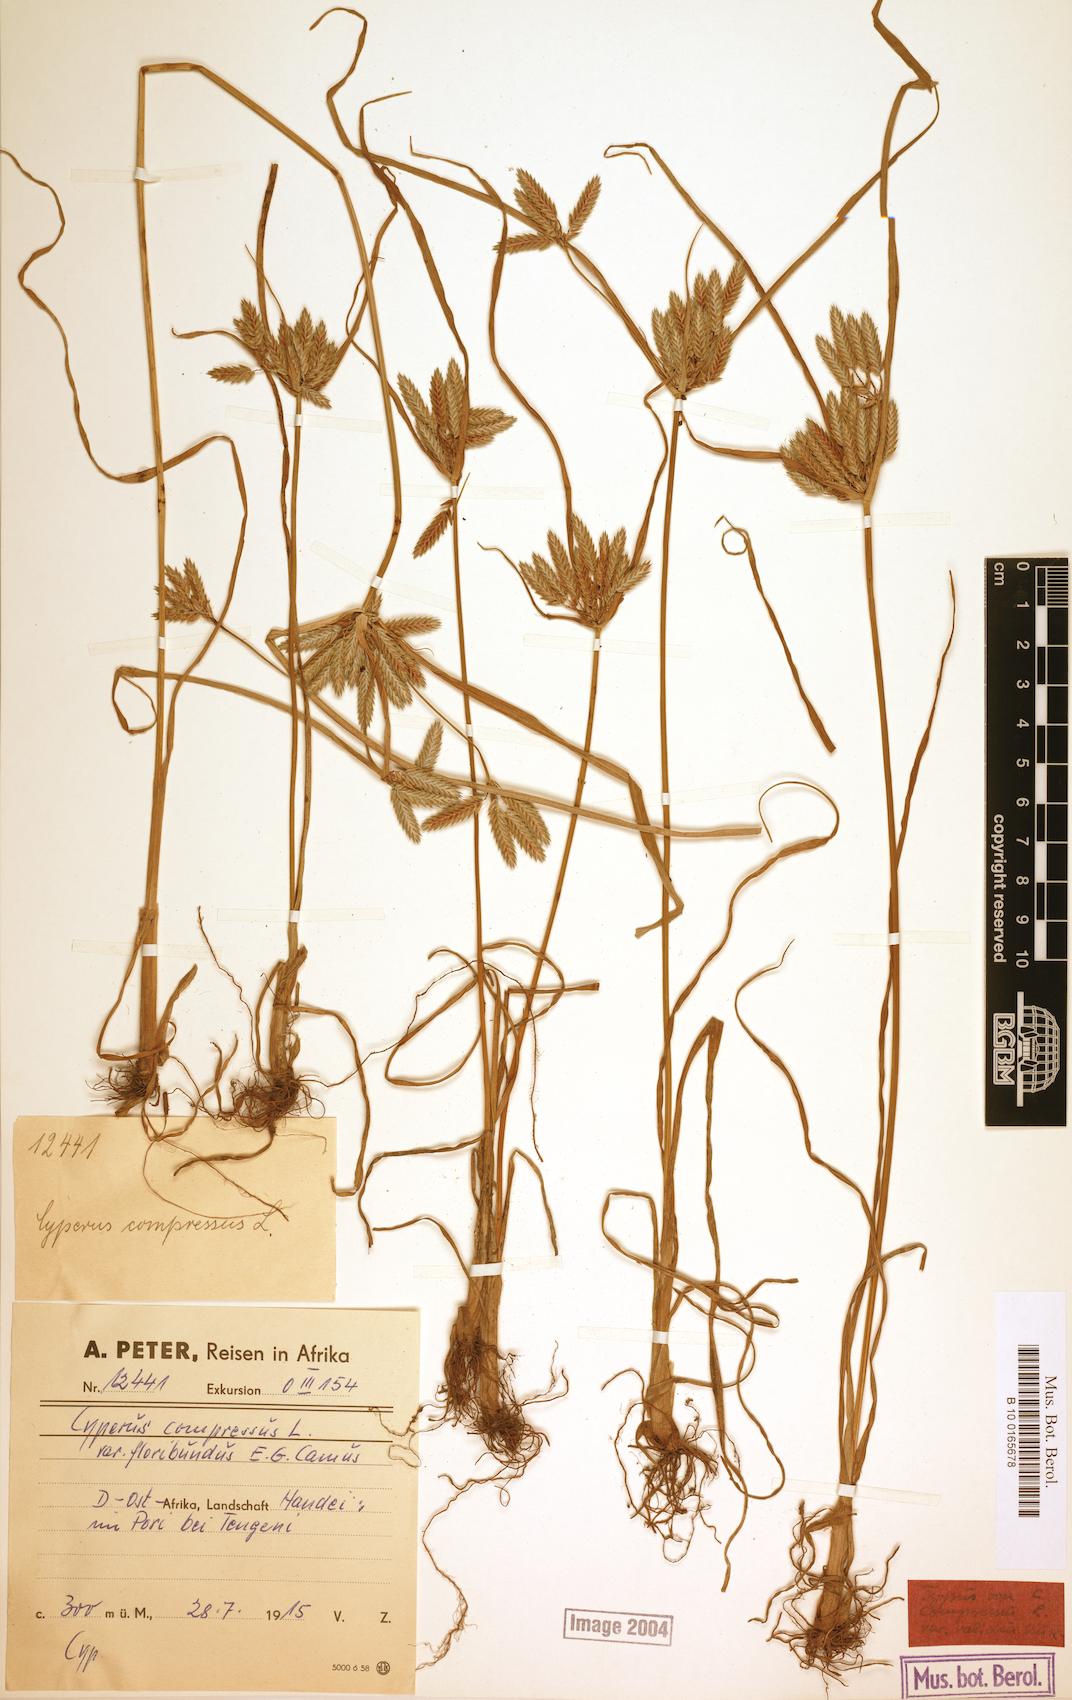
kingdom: Plantae
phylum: Tracheophyta
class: Liliopsida
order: Poales
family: Cyperaceae
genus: Cyperus
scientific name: Cyperus compressus
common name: Poorland flatsedge
